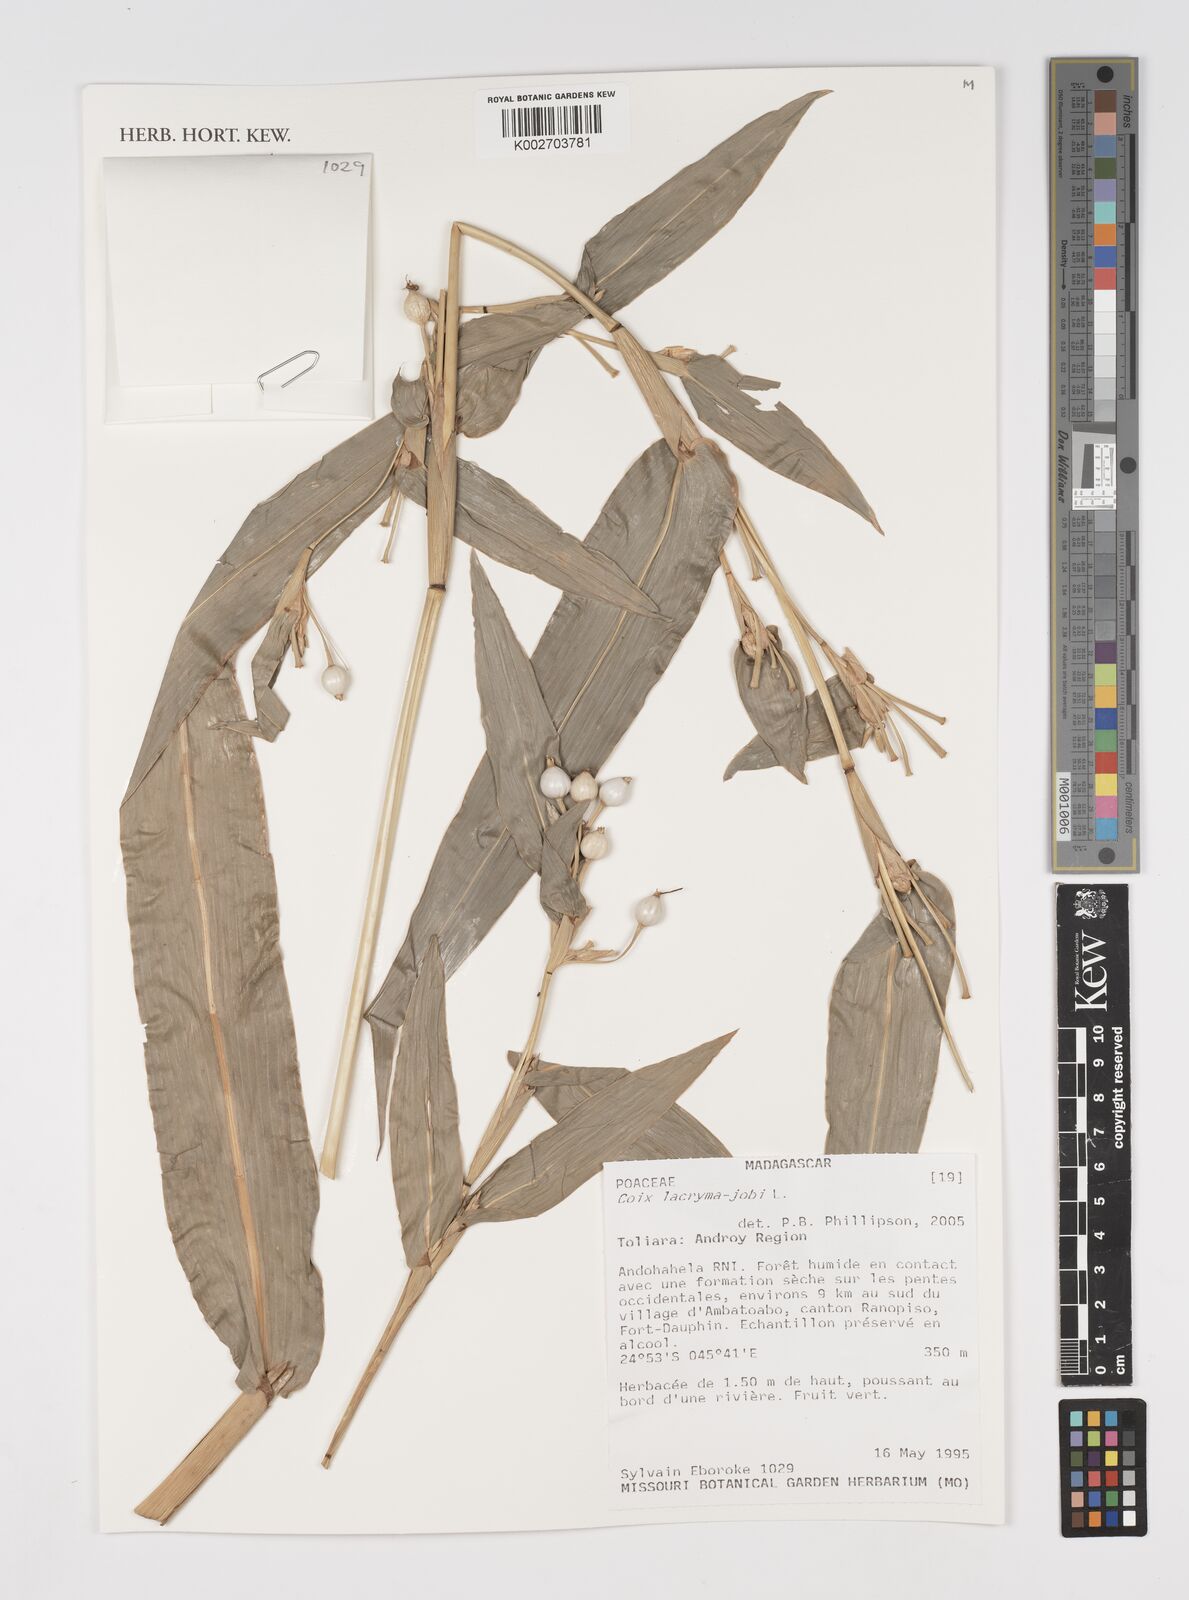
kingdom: Plantae
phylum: Tracheophyta
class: Liliopsida
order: Poales
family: Poaceae
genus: Coix
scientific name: Coix lacryma-jobi
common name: Job's tears
